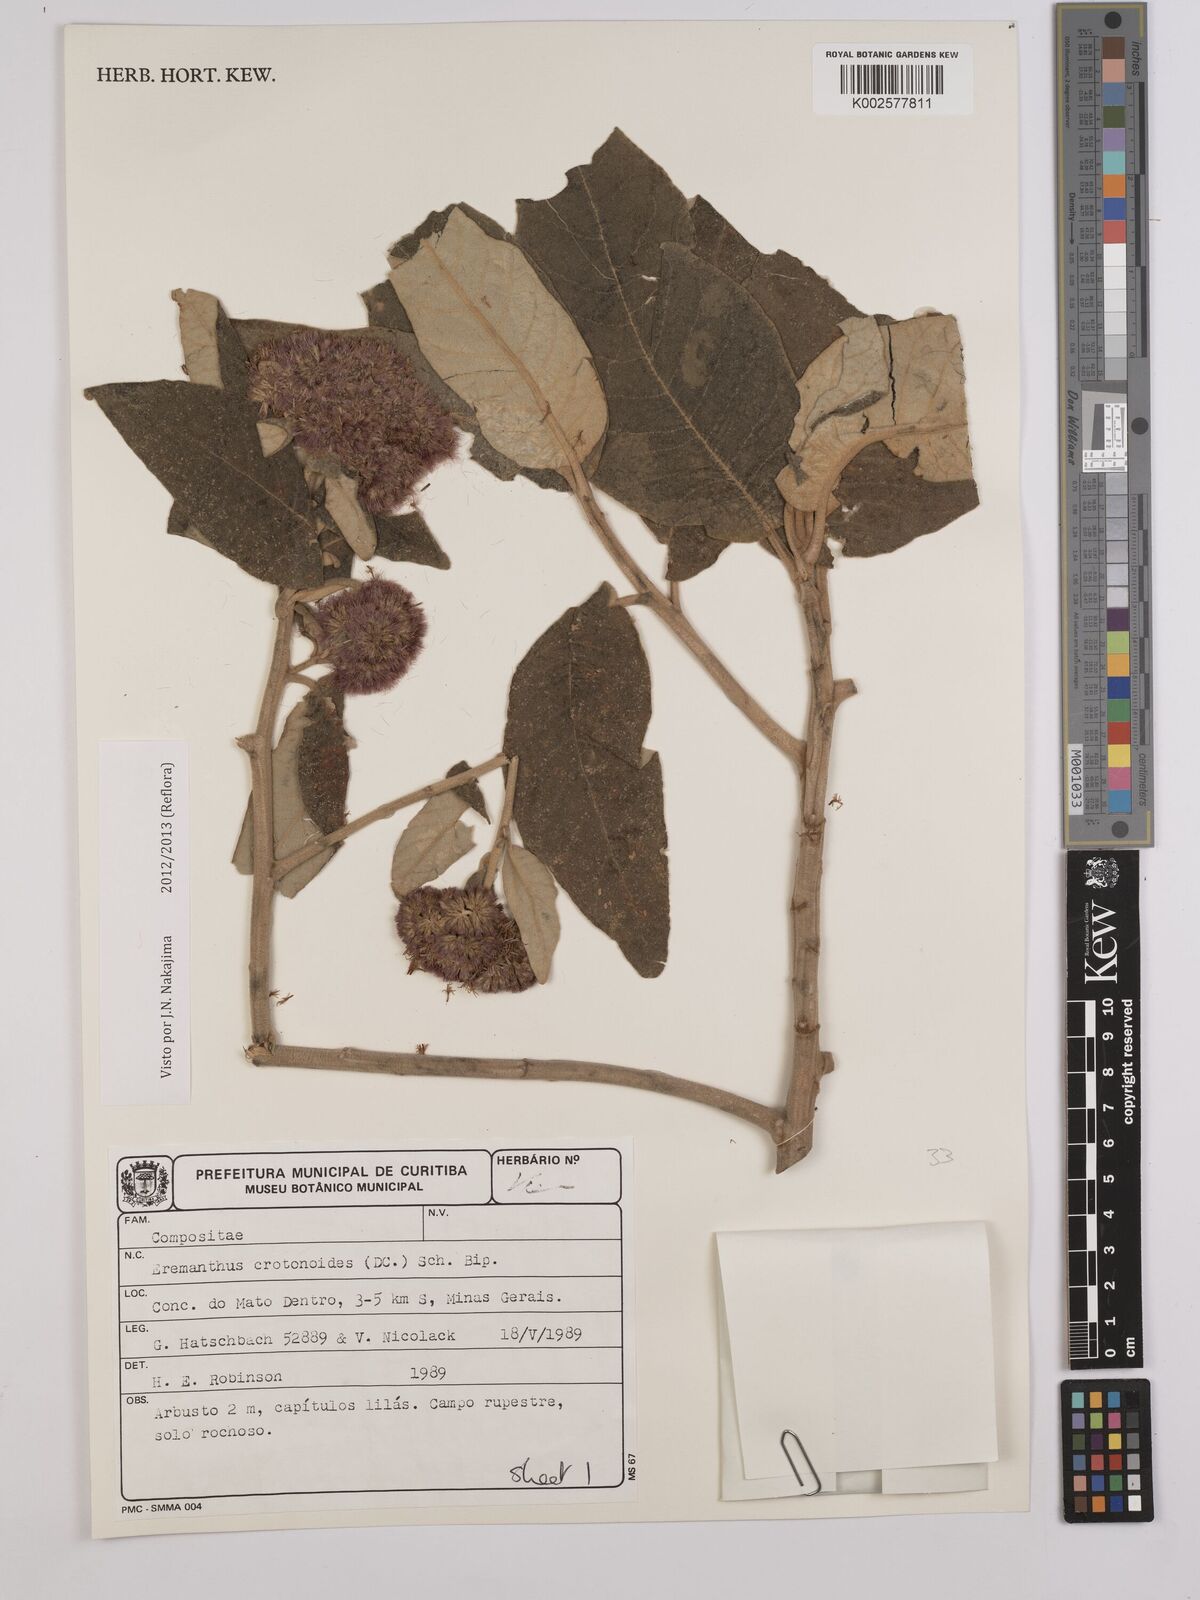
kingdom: Plantae
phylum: Tracheophyta
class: Magnoliopsida
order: Asterales
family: Asteraceae
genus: Eremanthus
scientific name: Eremanthus crotonoides
